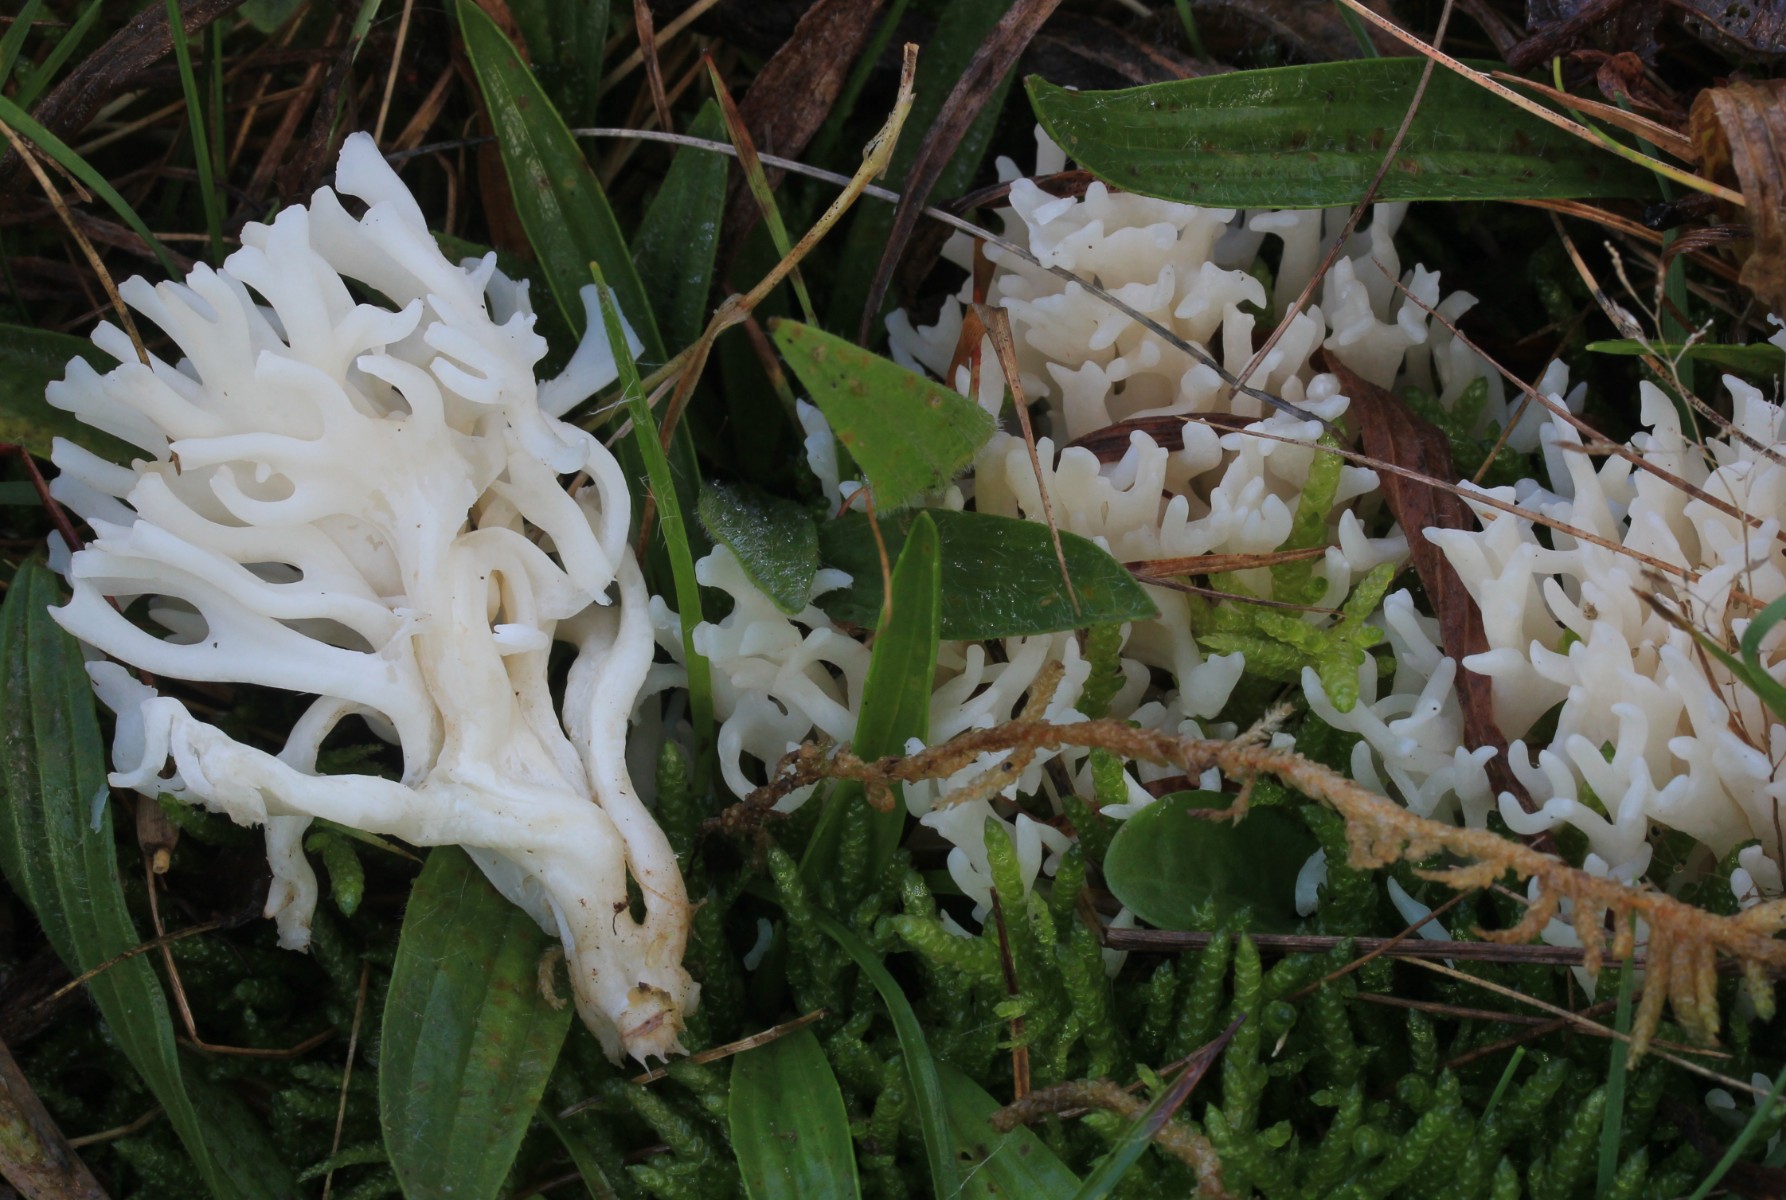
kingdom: Fungi
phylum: Basidiomycota
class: Agaricomycetes
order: Agaricales
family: Clavariaceae
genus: Ramariopsis
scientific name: Ramariopsis robusta
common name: tykgrenet køllesvamp
